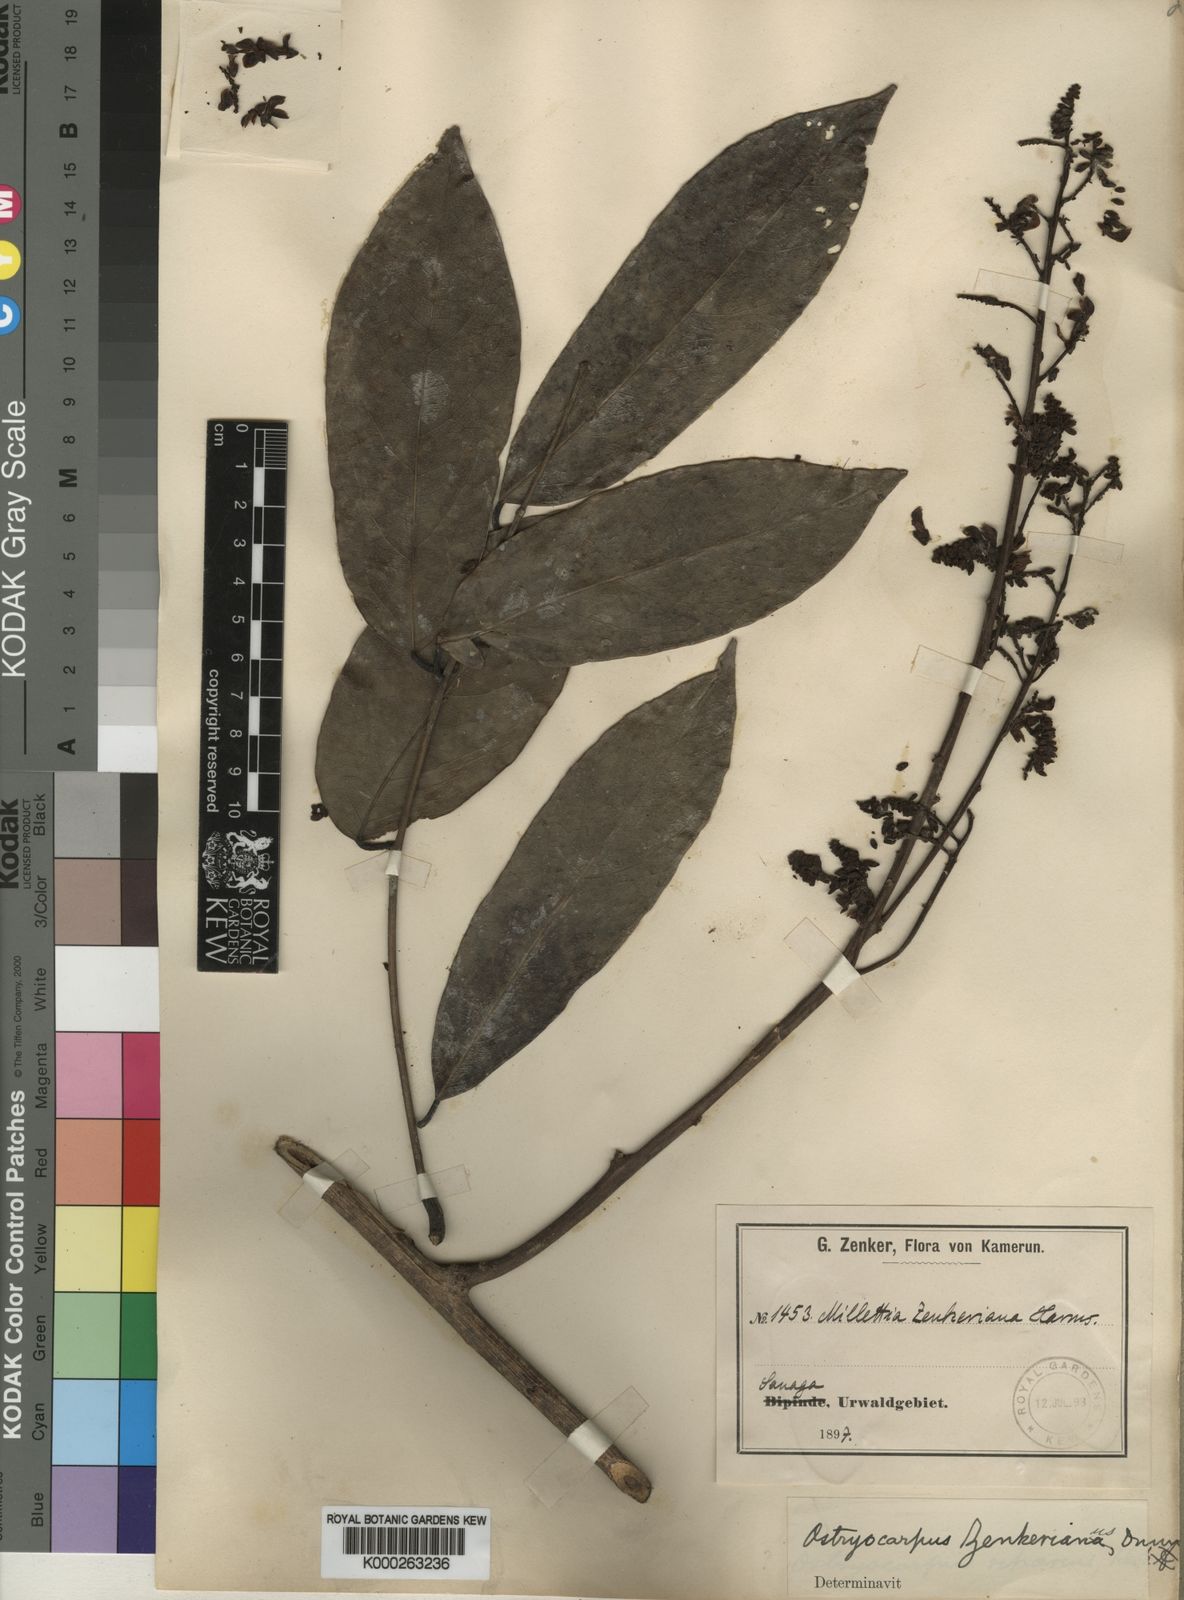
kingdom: Plantae
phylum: Tracheophyta
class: Magnoliopsida
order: Fabales
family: Fabaceae
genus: Ostryocarpus
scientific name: Ostryocarpus zenkerianus
